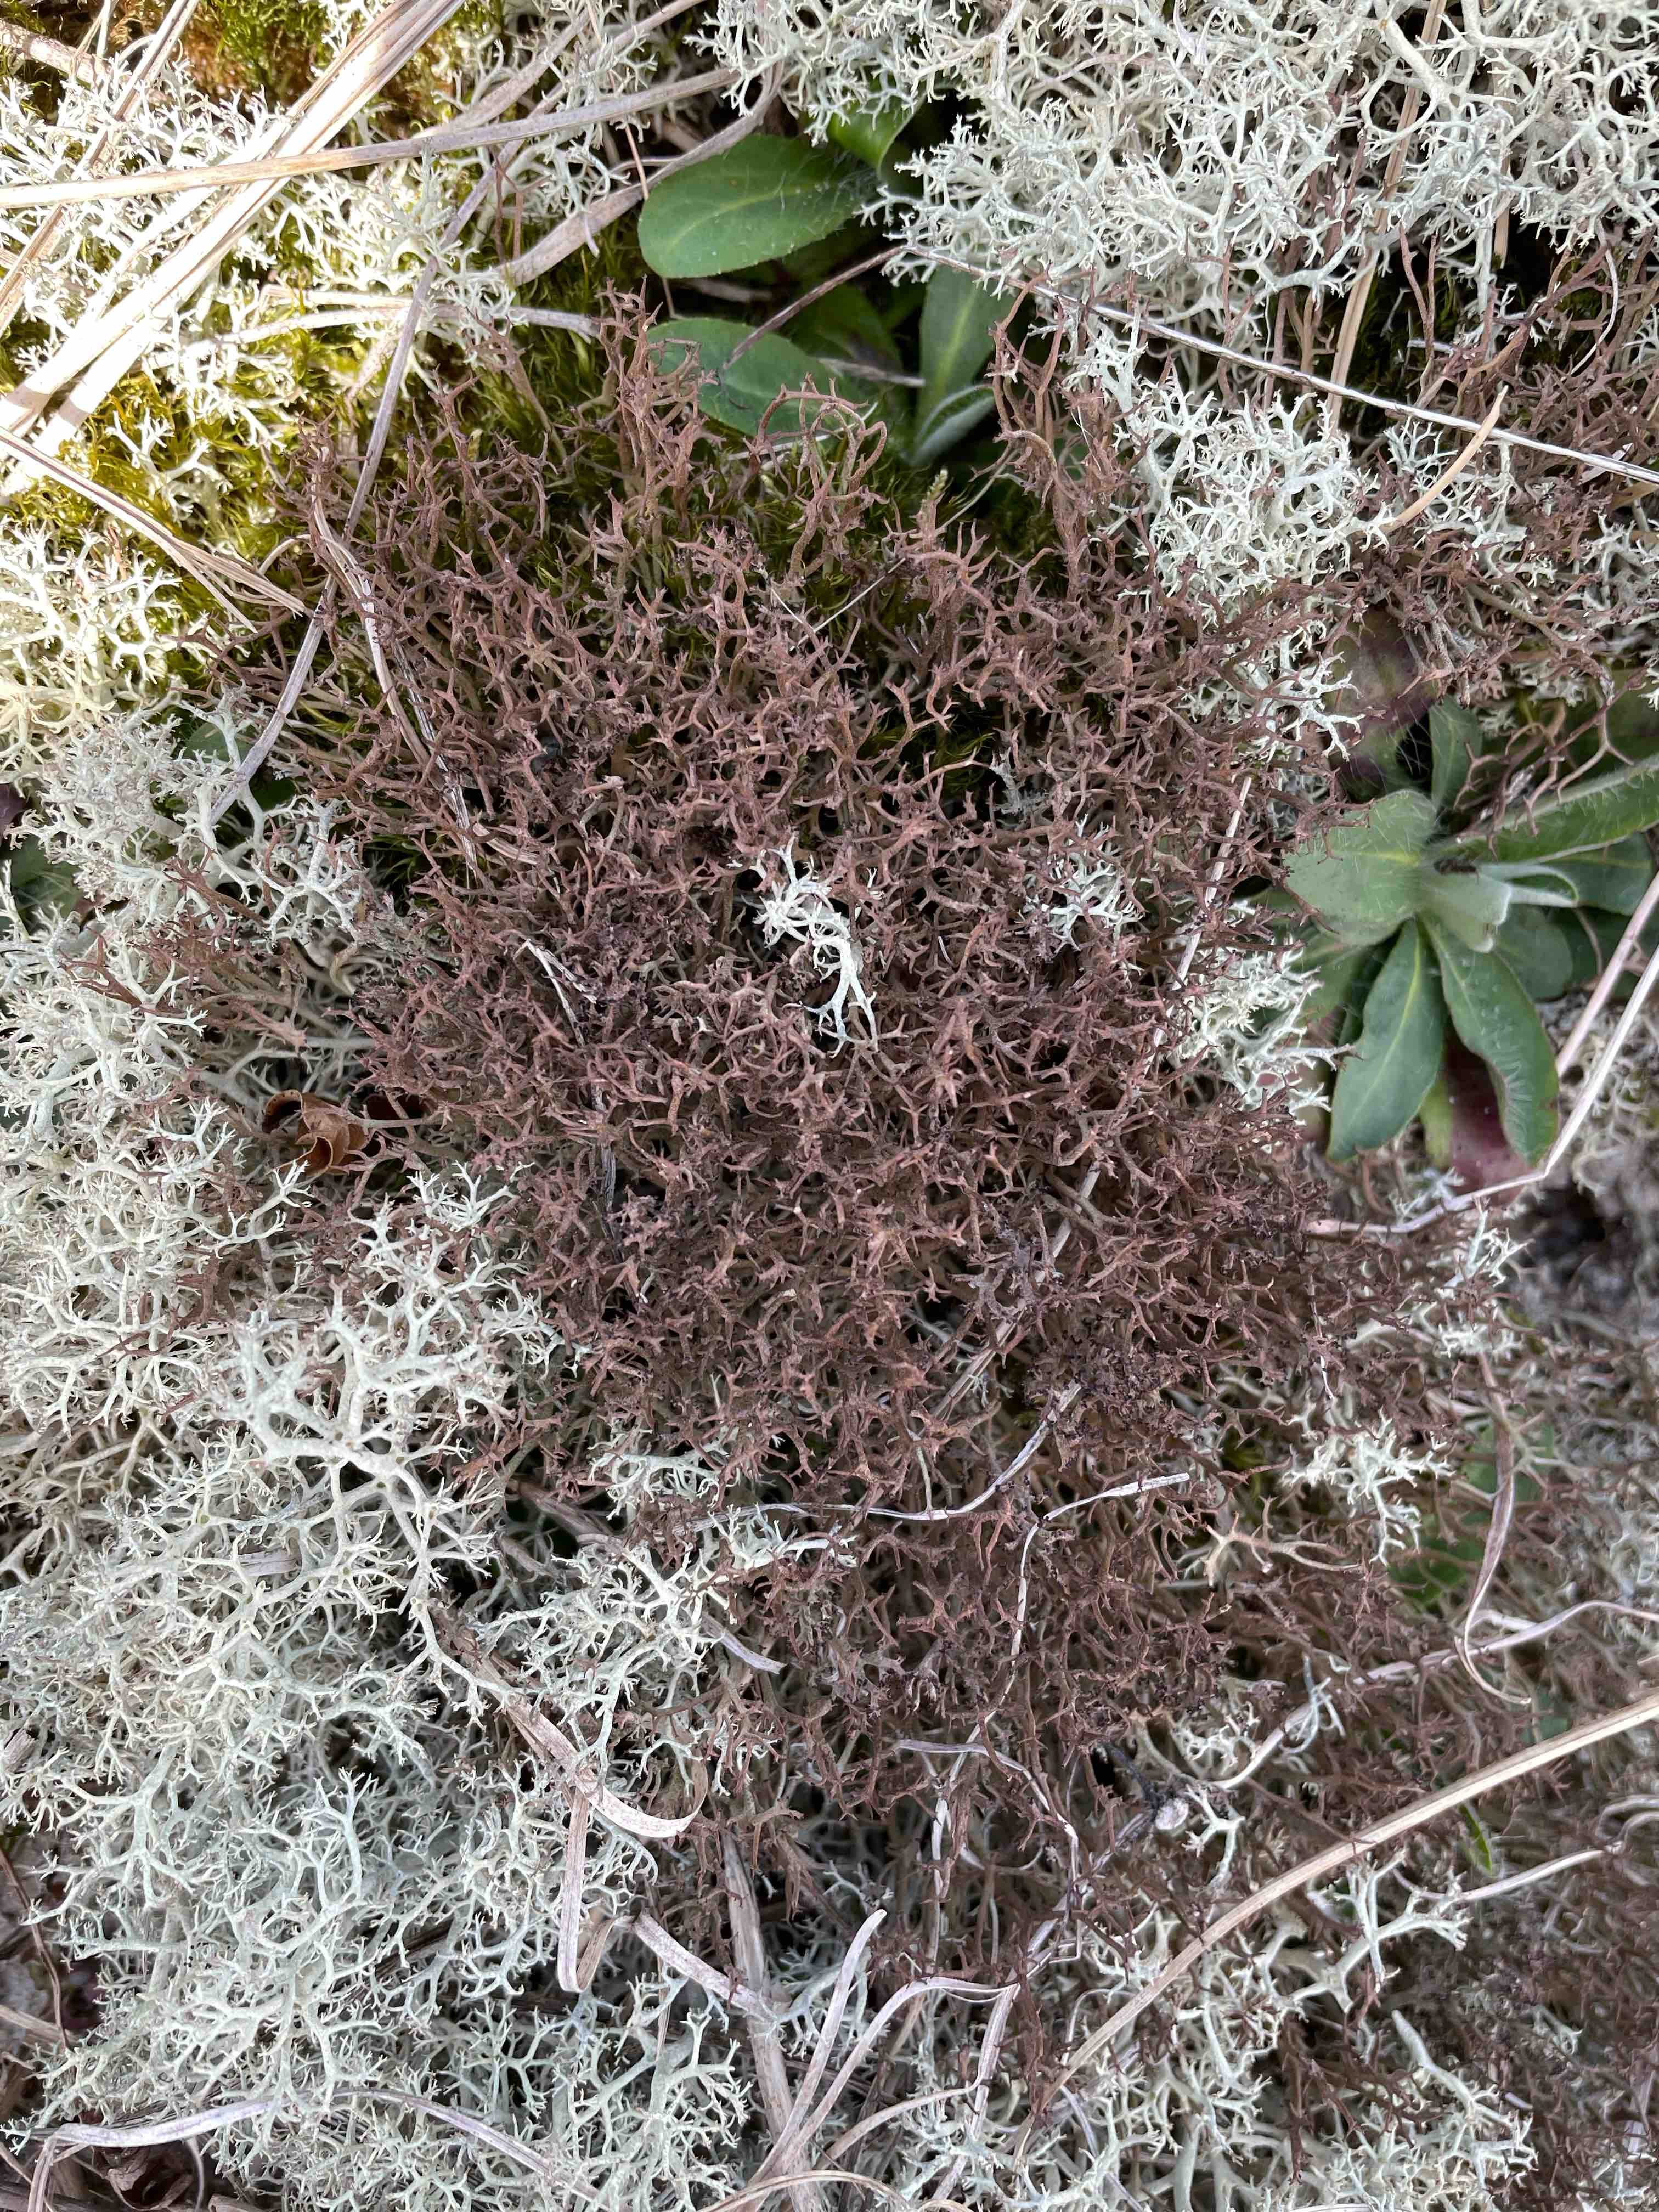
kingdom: Fungi
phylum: Ascomycota
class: Lecanoromycetes
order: Lecanorales
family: Cladoniaceae
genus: Cladonia
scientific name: Cladonia furcata
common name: kløftet bægerlav
